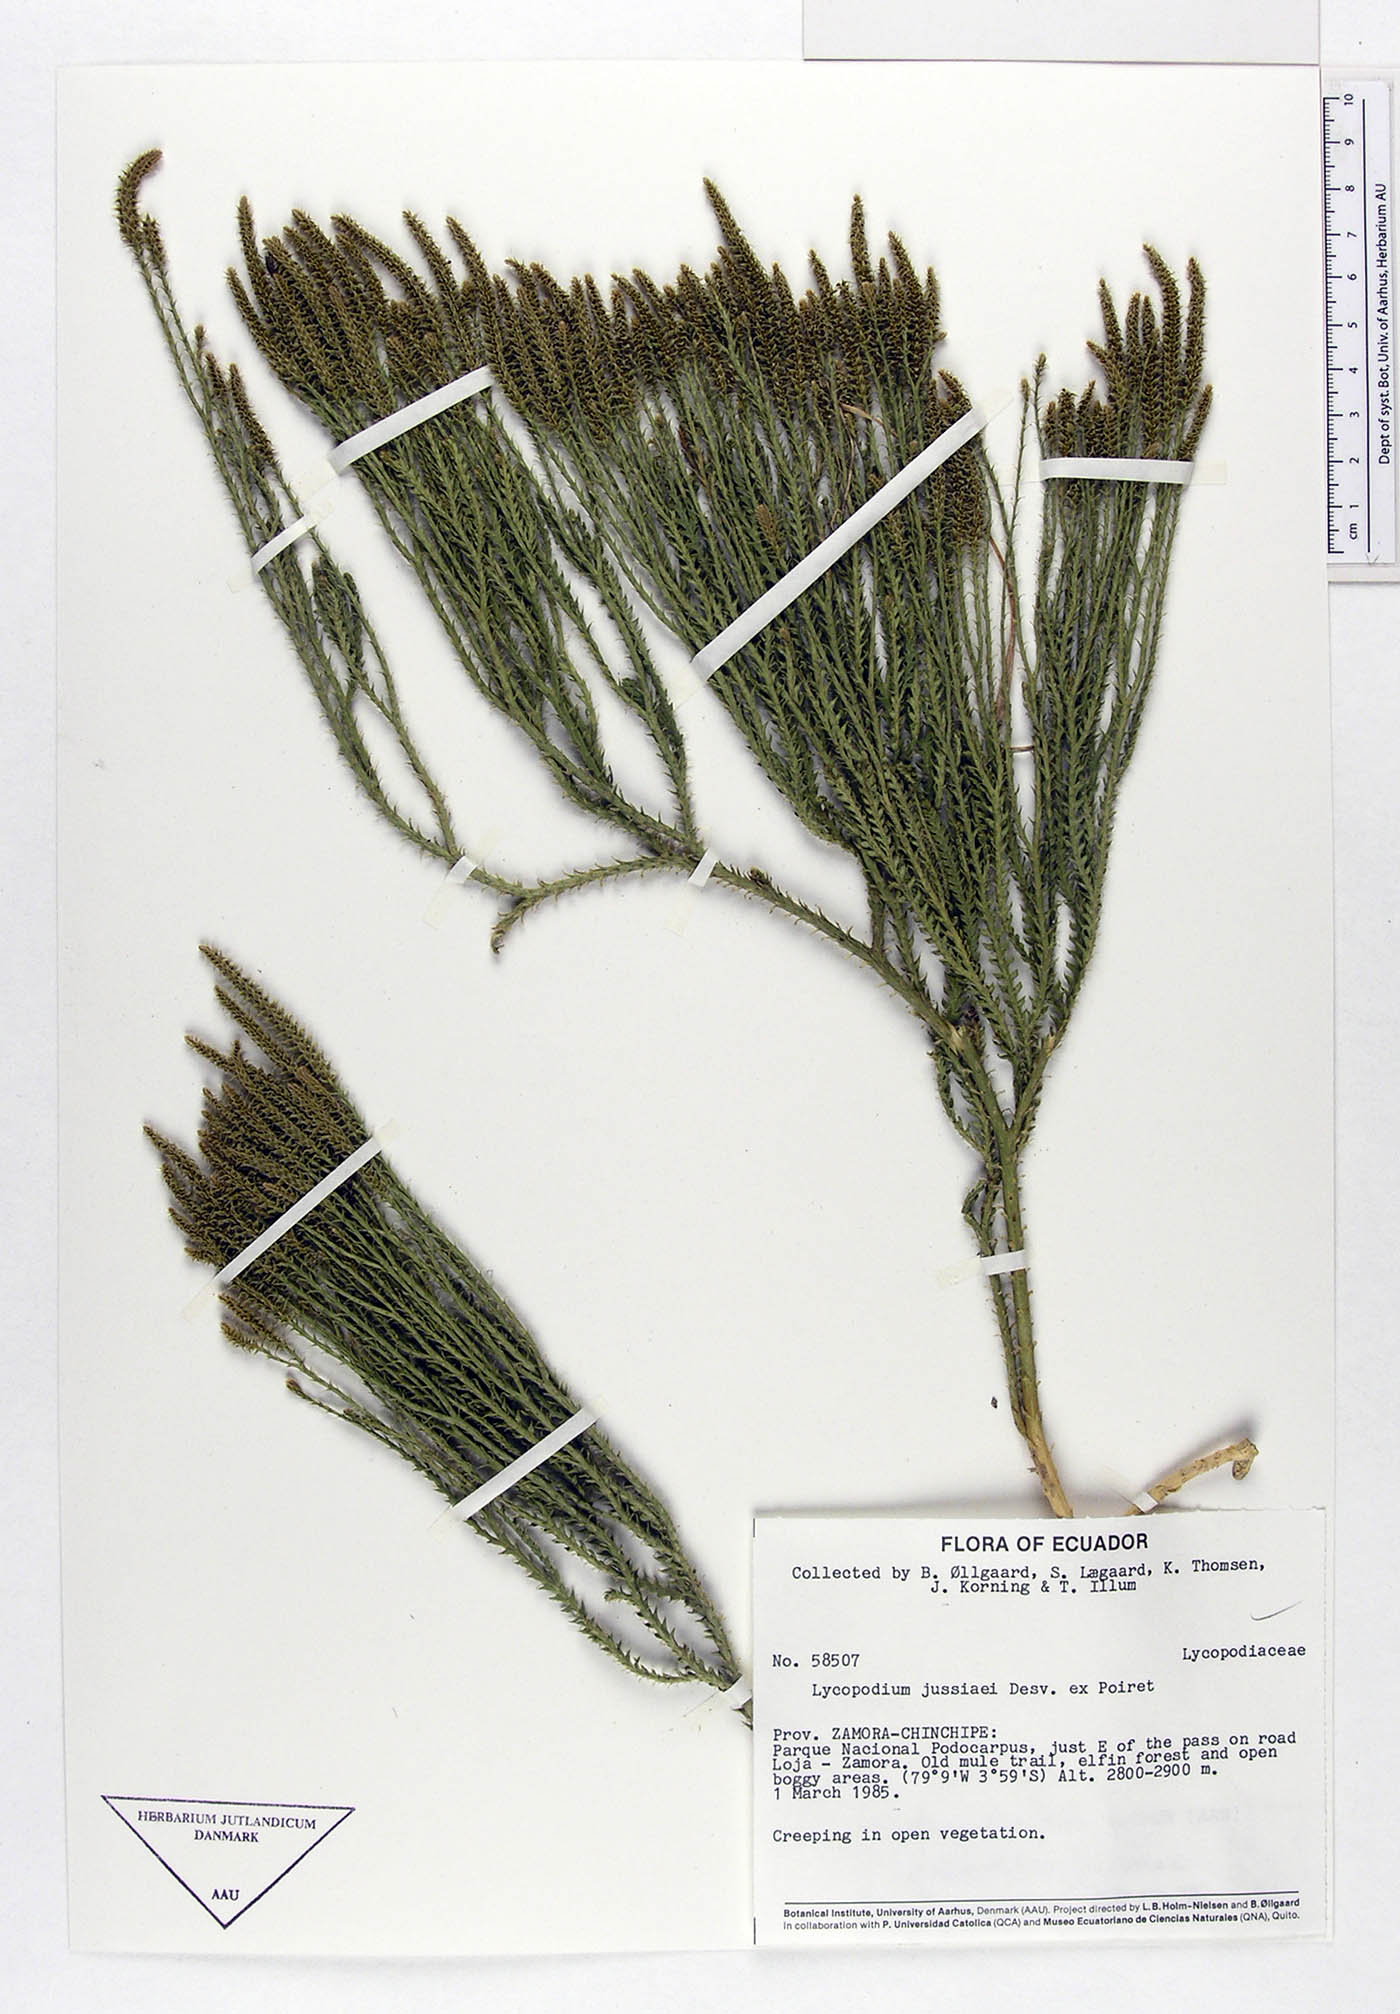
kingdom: Plantae
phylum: Tracheophyta
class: Lycopodiopsida
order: Lycopodiales
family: Lycopodiaceae
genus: Diphasium
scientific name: Diphasium jussiaei
